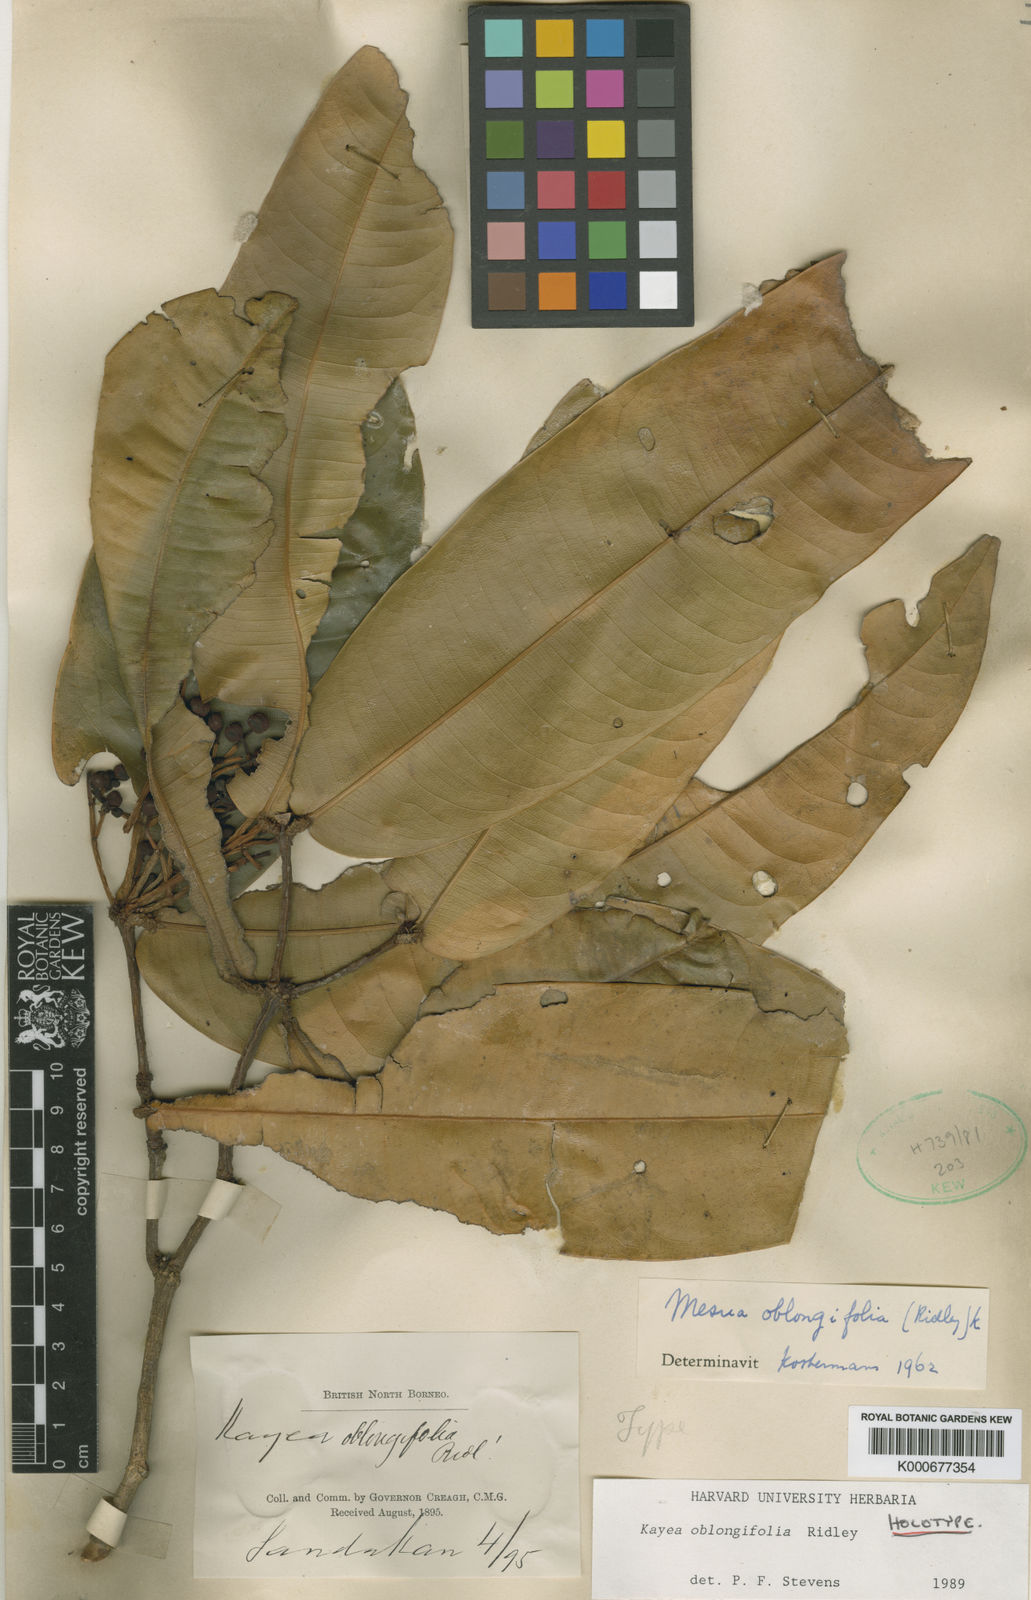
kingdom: Plantae
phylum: Tracheophyta
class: Magnoliopsida
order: Malpighiales
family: Calophyllaceae
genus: Kayea
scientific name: Kayea oblongifolia
